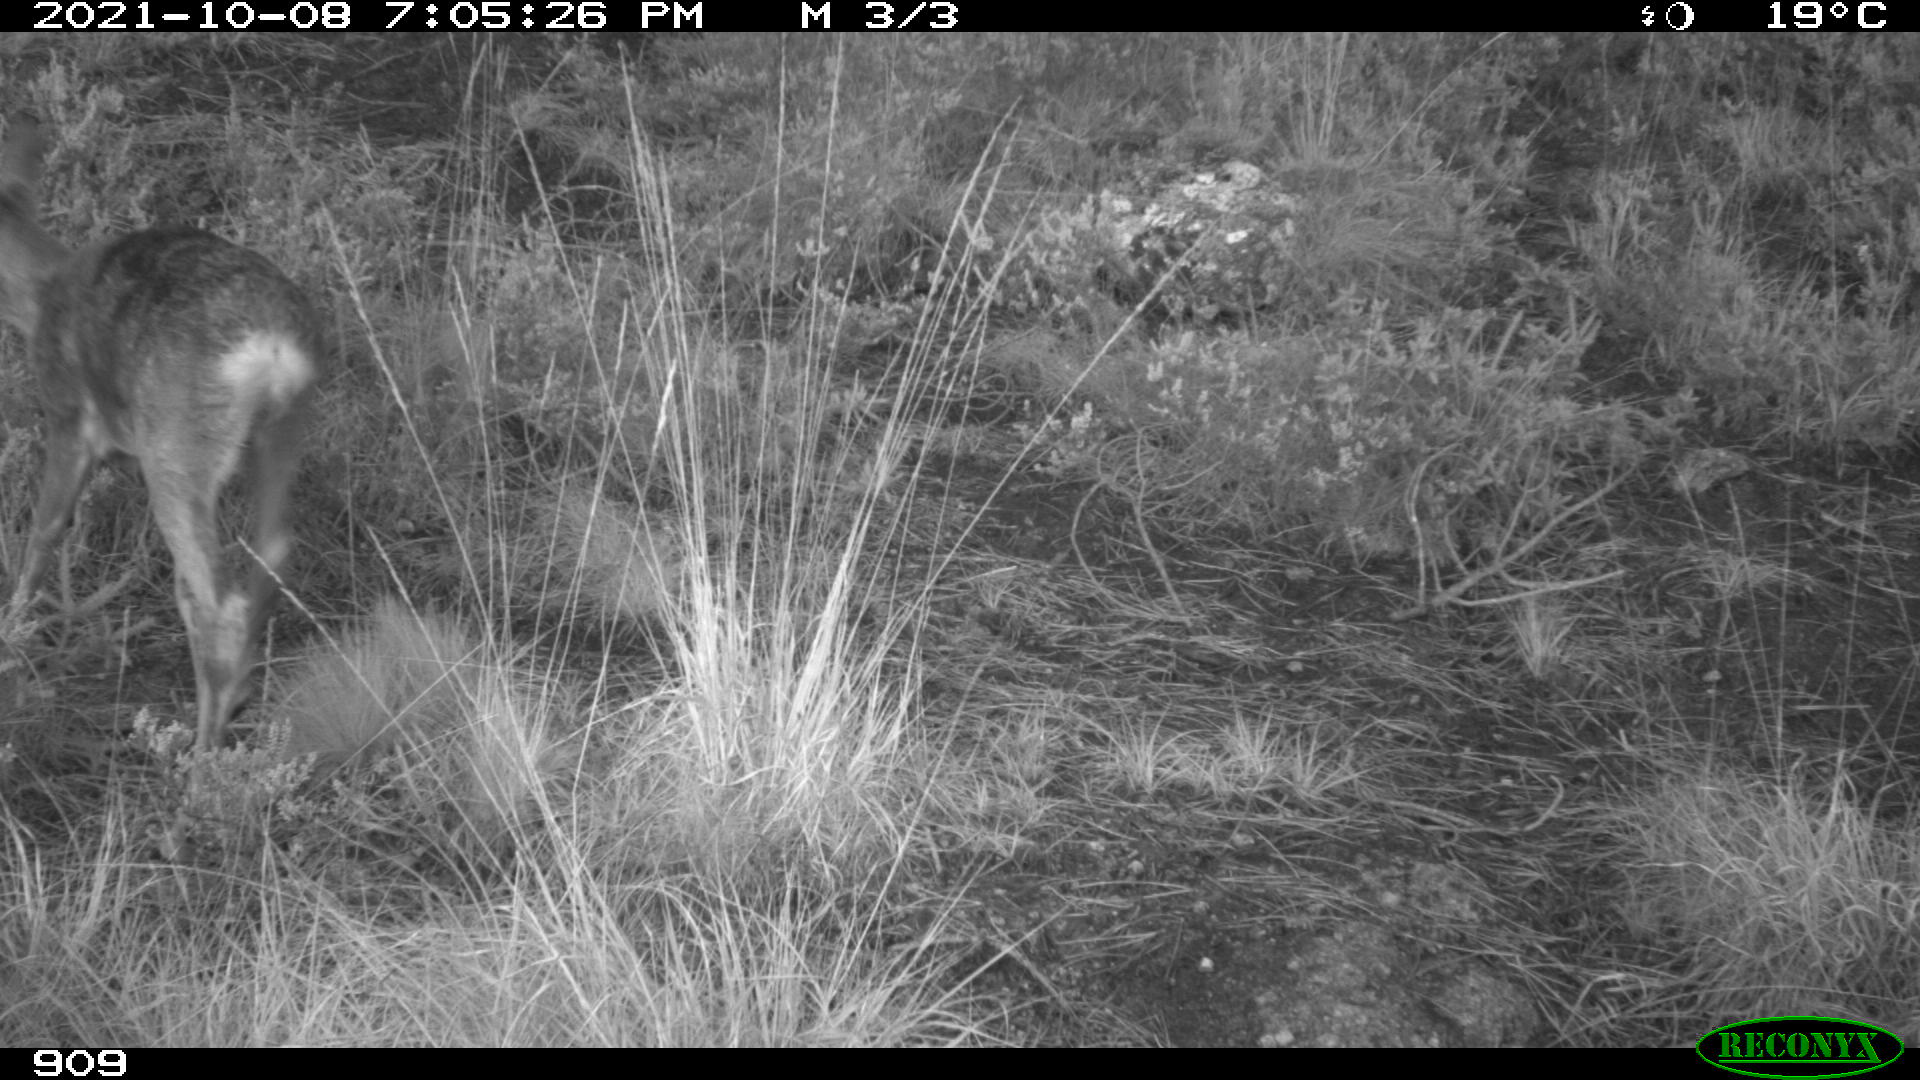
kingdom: Animalia
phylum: Chordata
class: Mammalia
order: Artiodactyla
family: Cervidae
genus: Capreolus
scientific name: Capreolus capreolus
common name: Western roe deer
